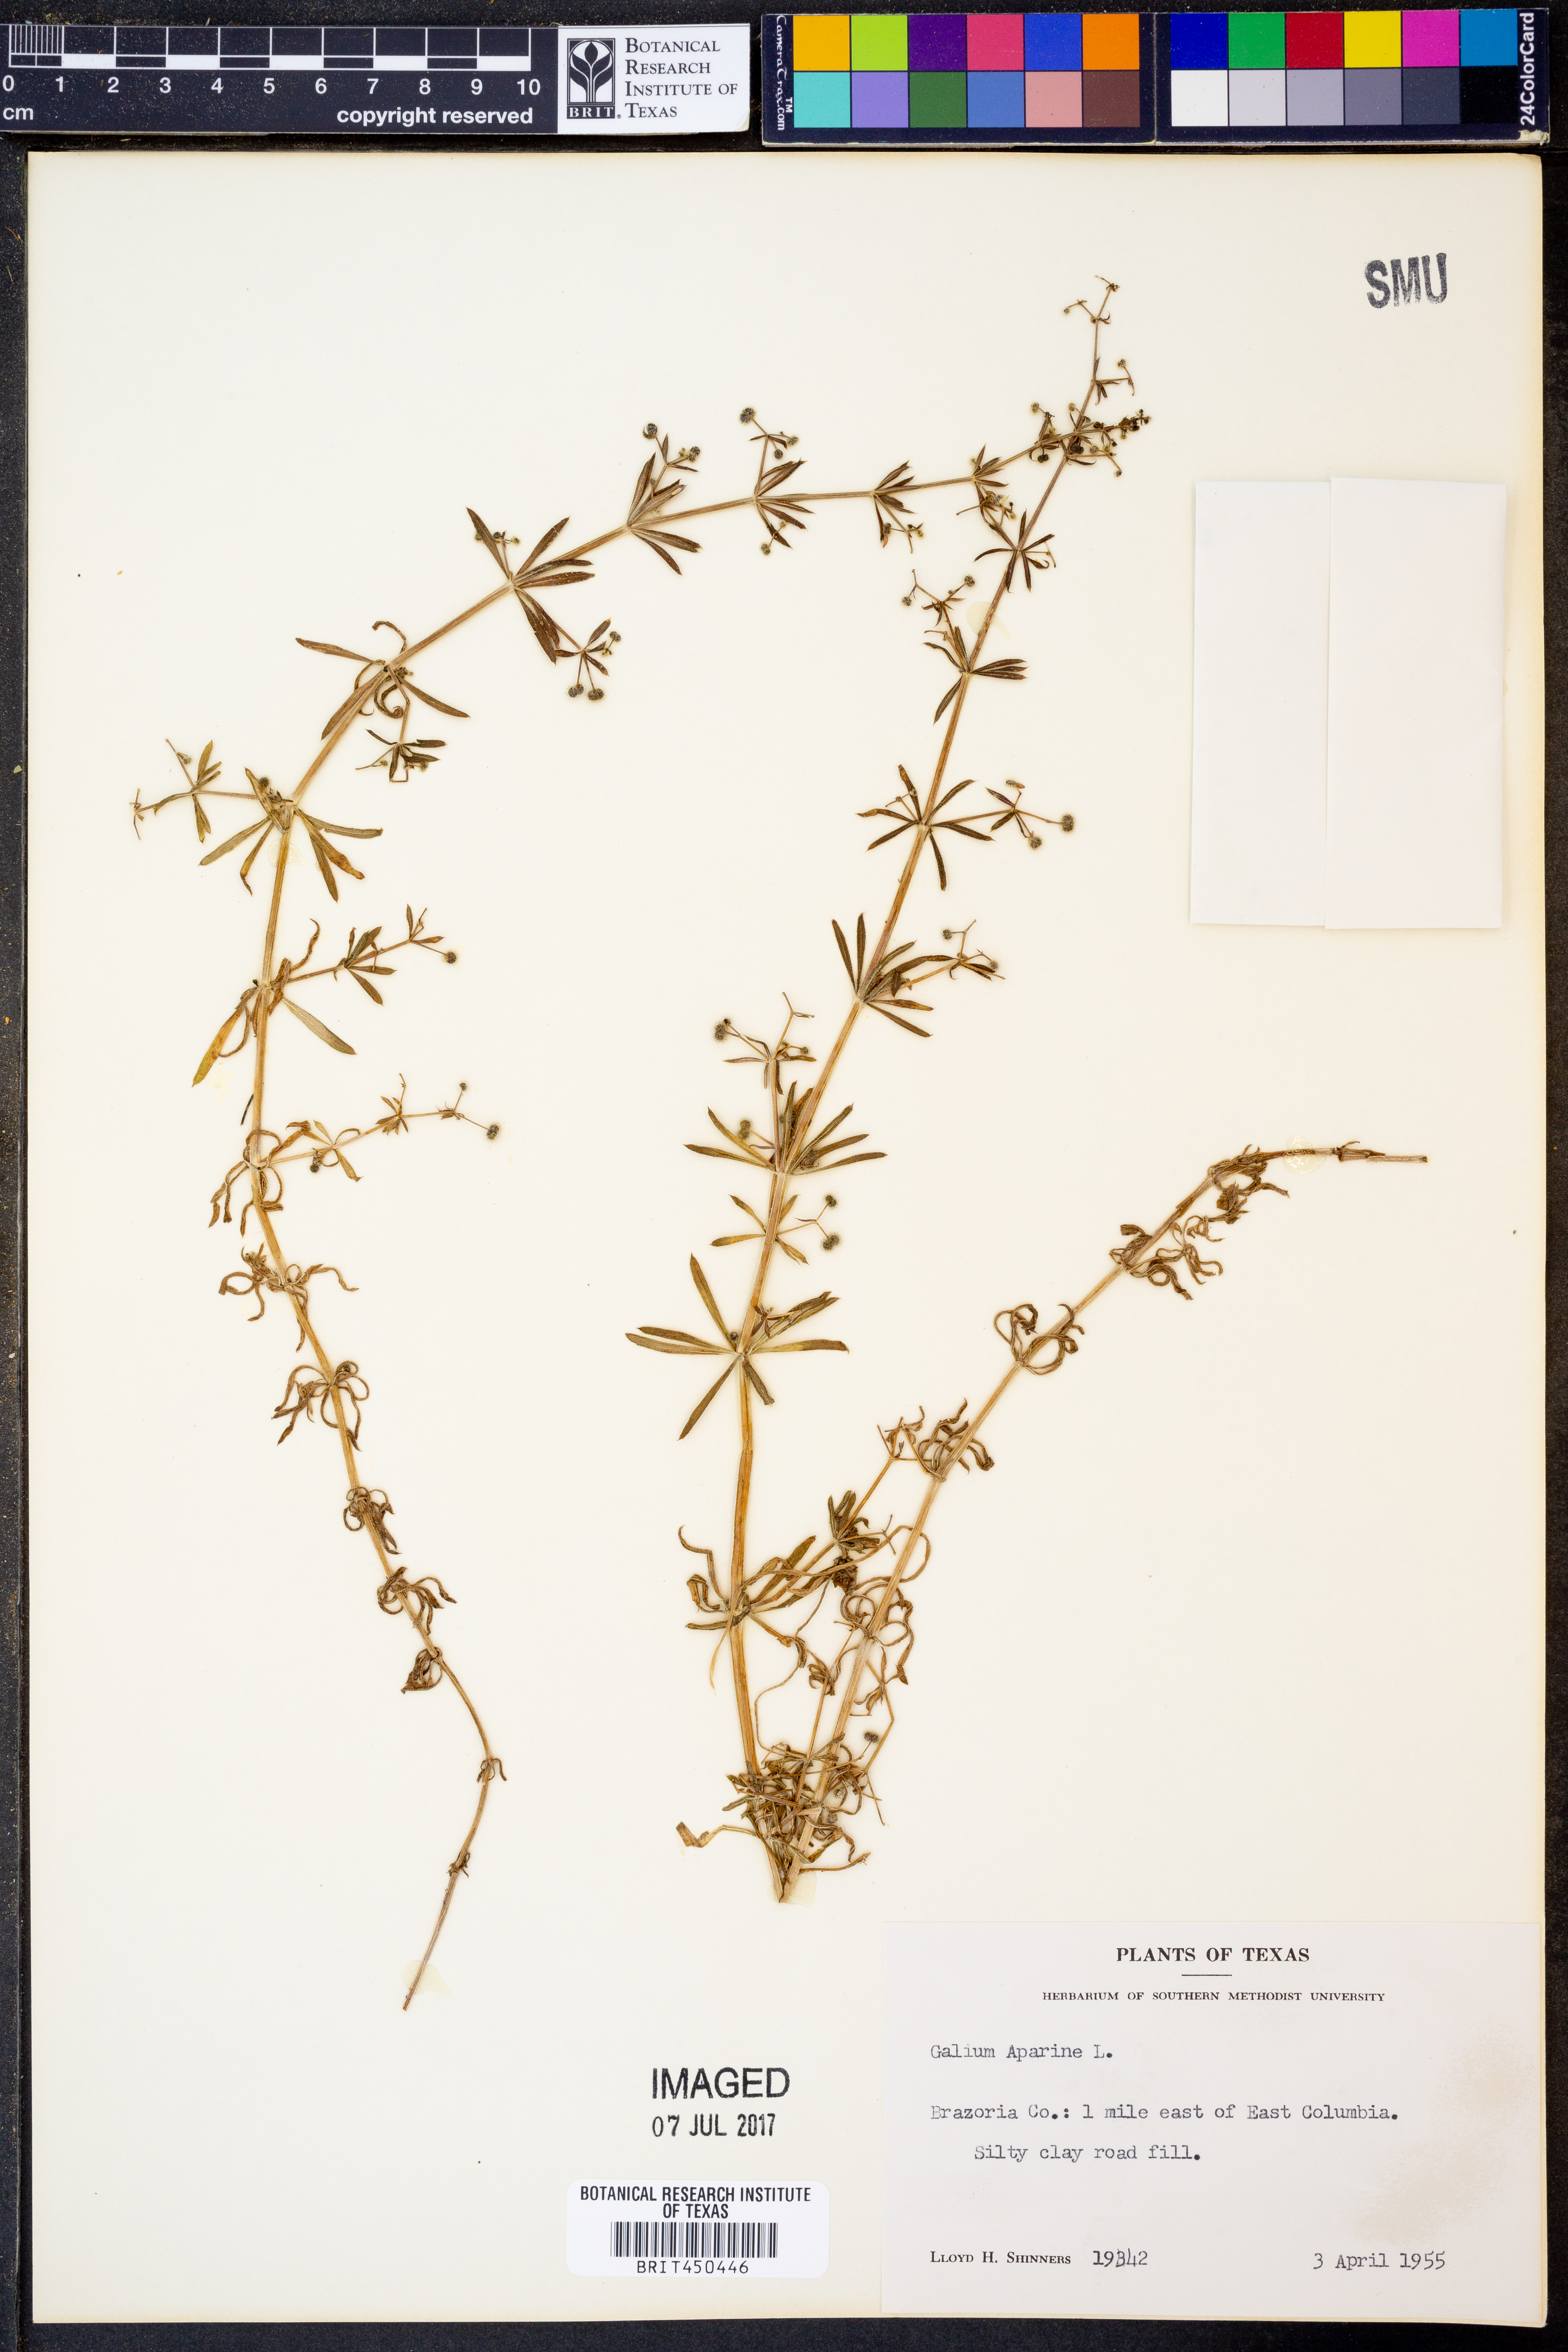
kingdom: Plantae
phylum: Tracheophyta
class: Magnoliopsida
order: Gentianales
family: Rubiaceae
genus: Galium
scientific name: Galium aparine
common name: Cleavers
